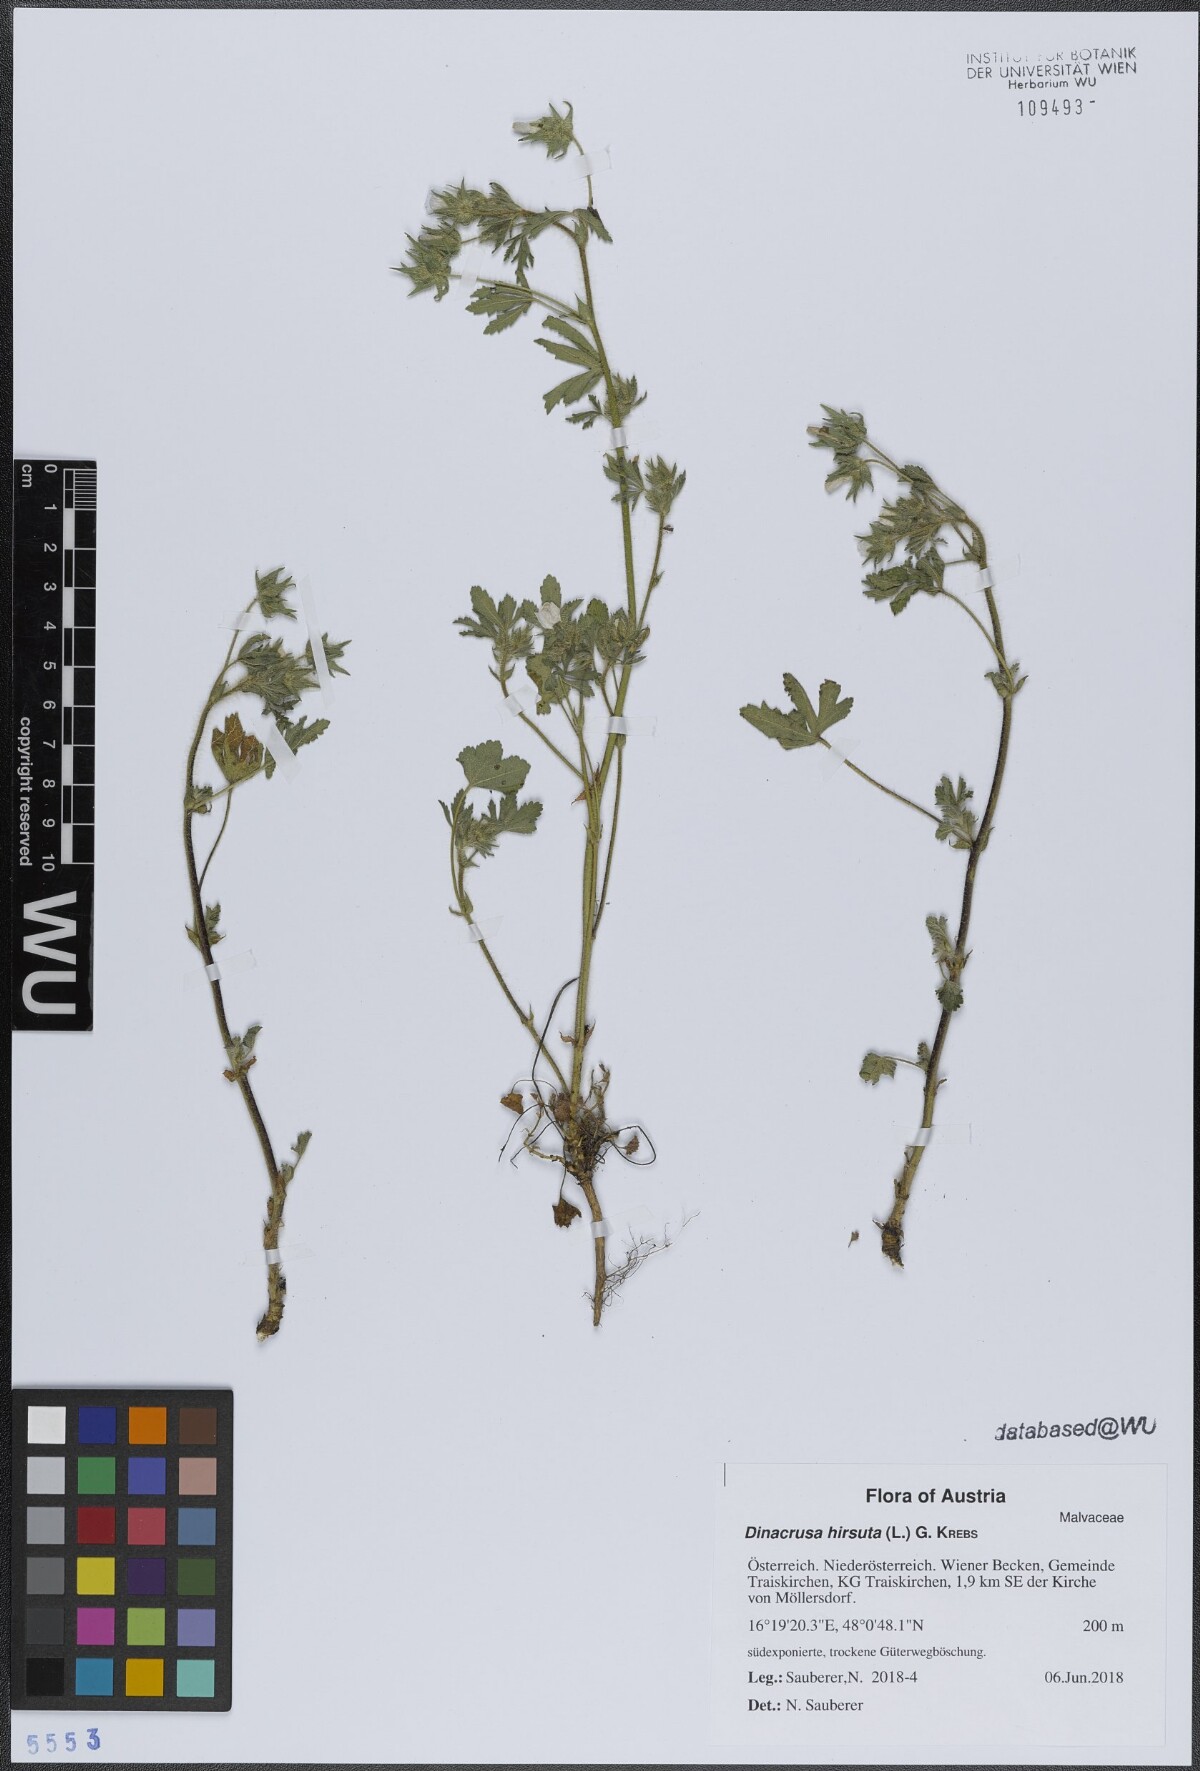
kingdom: Plantae
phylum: Tracheophyta
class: Magnoliopsida
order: Malvales
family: Malvaceae
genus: Althaea
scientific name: Althaea hirsuta
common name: Rough marsh-mallow
